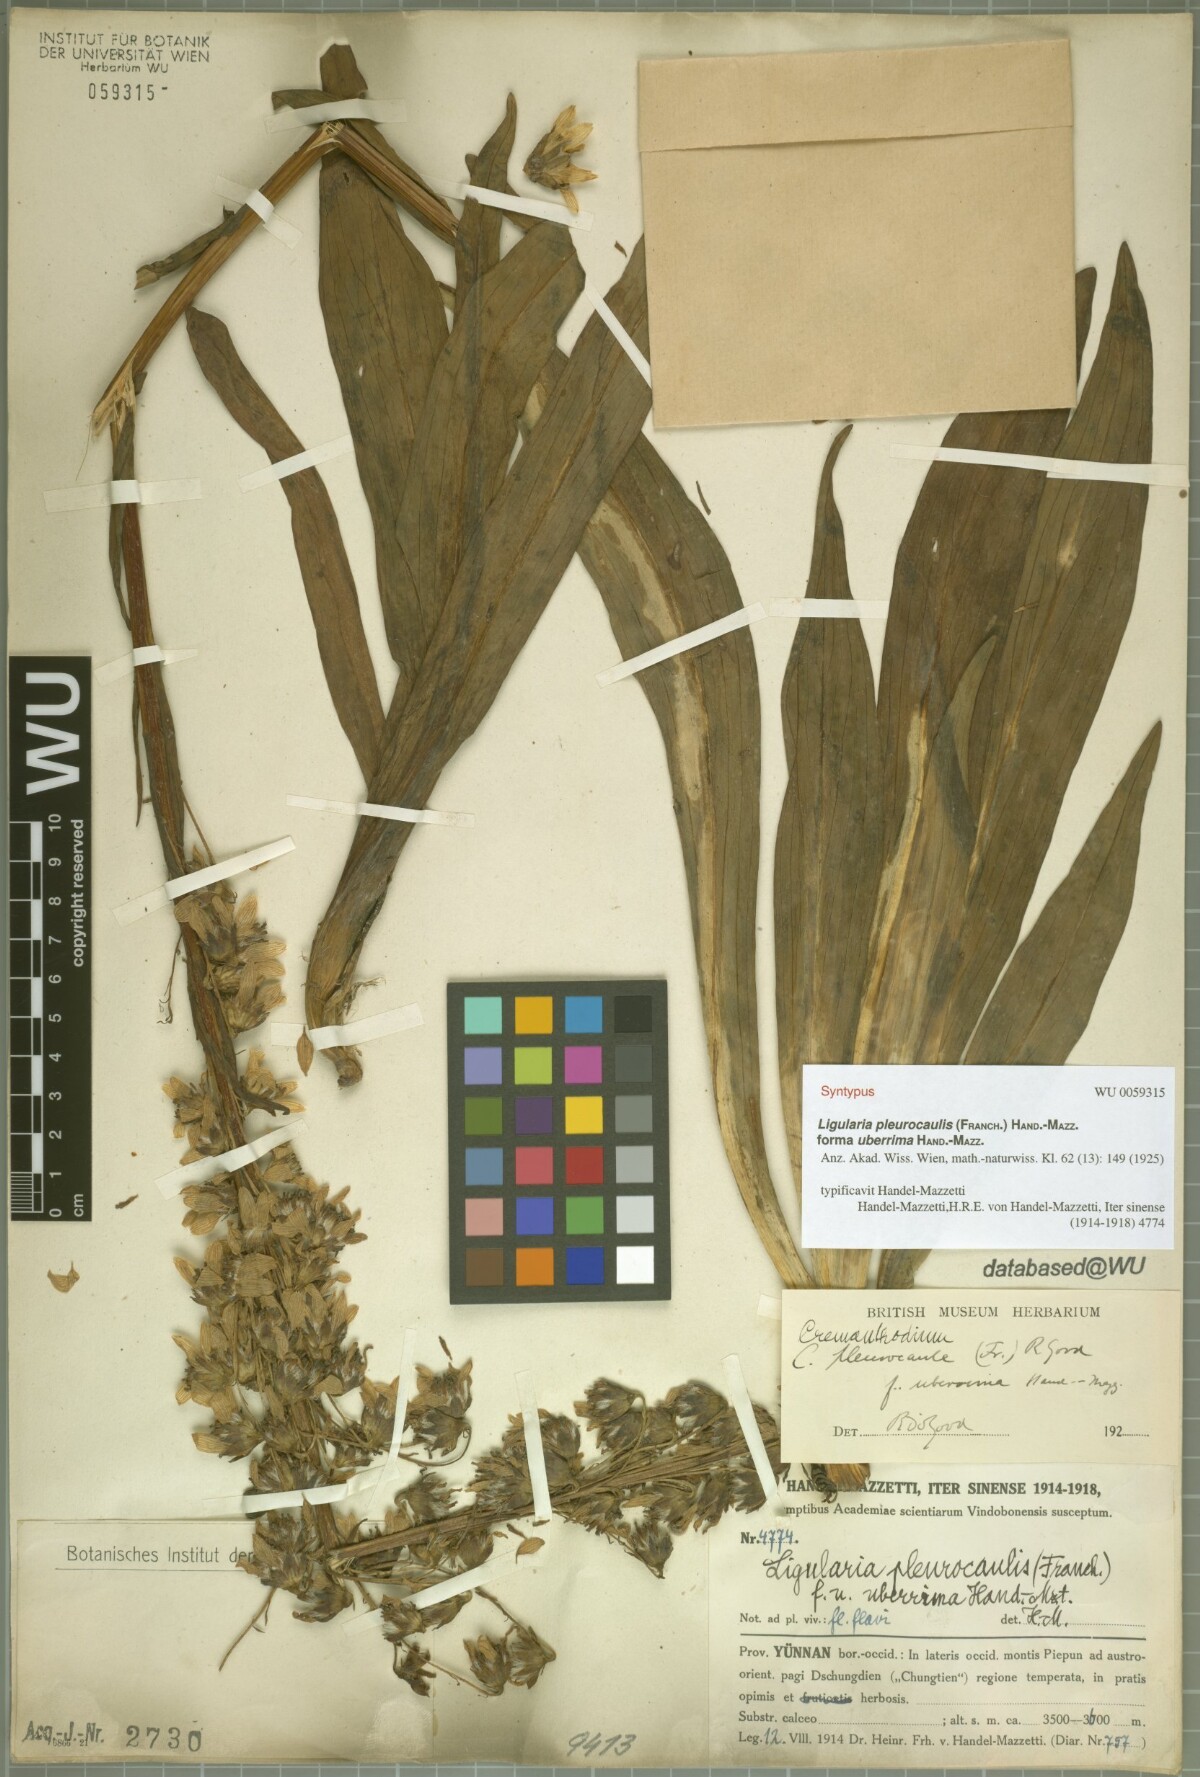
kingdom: Plantae
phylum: Tracheophyta
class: Magnoliopsida
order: Asterales
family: Asteraceae
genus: Ligularia
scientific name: Ligularia pleurocaulis
